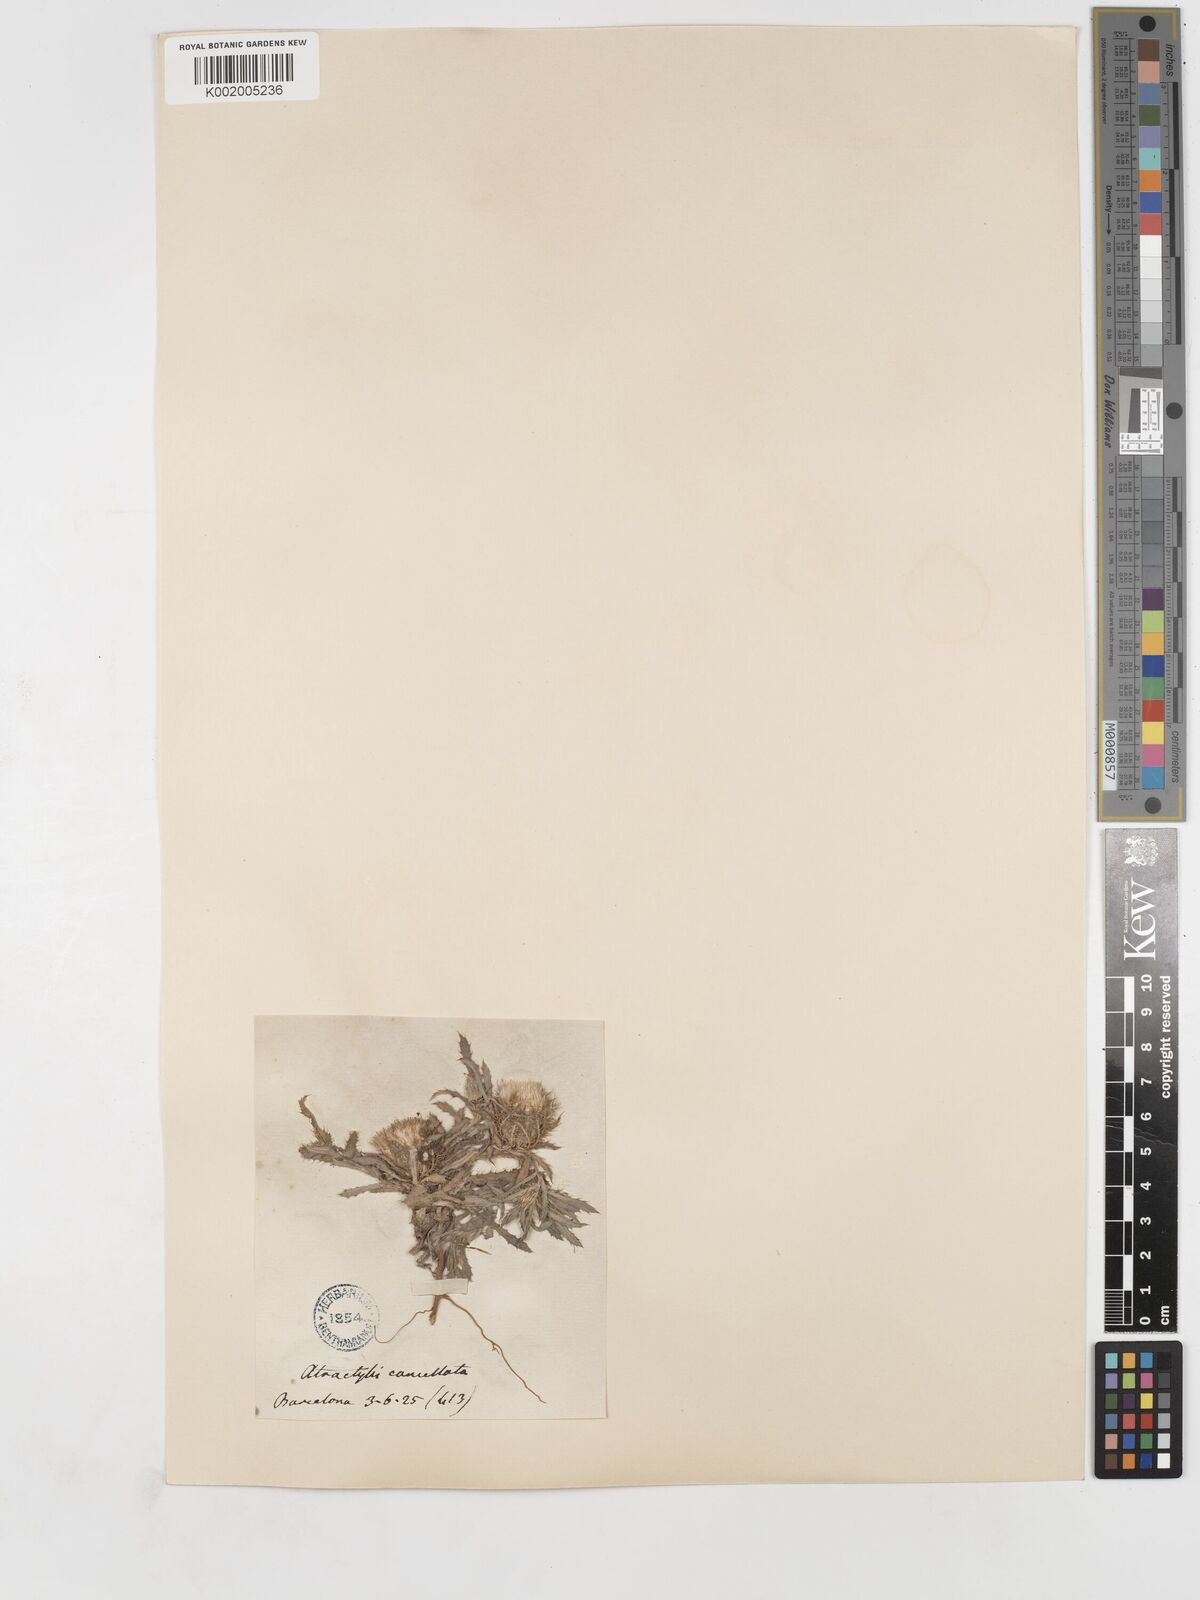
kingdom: Plantae
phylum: Tracheophyta
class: Magnoliopsida
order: Asterales
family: Asteraceae
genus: Atractylis
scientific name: Atractylis cancellata
